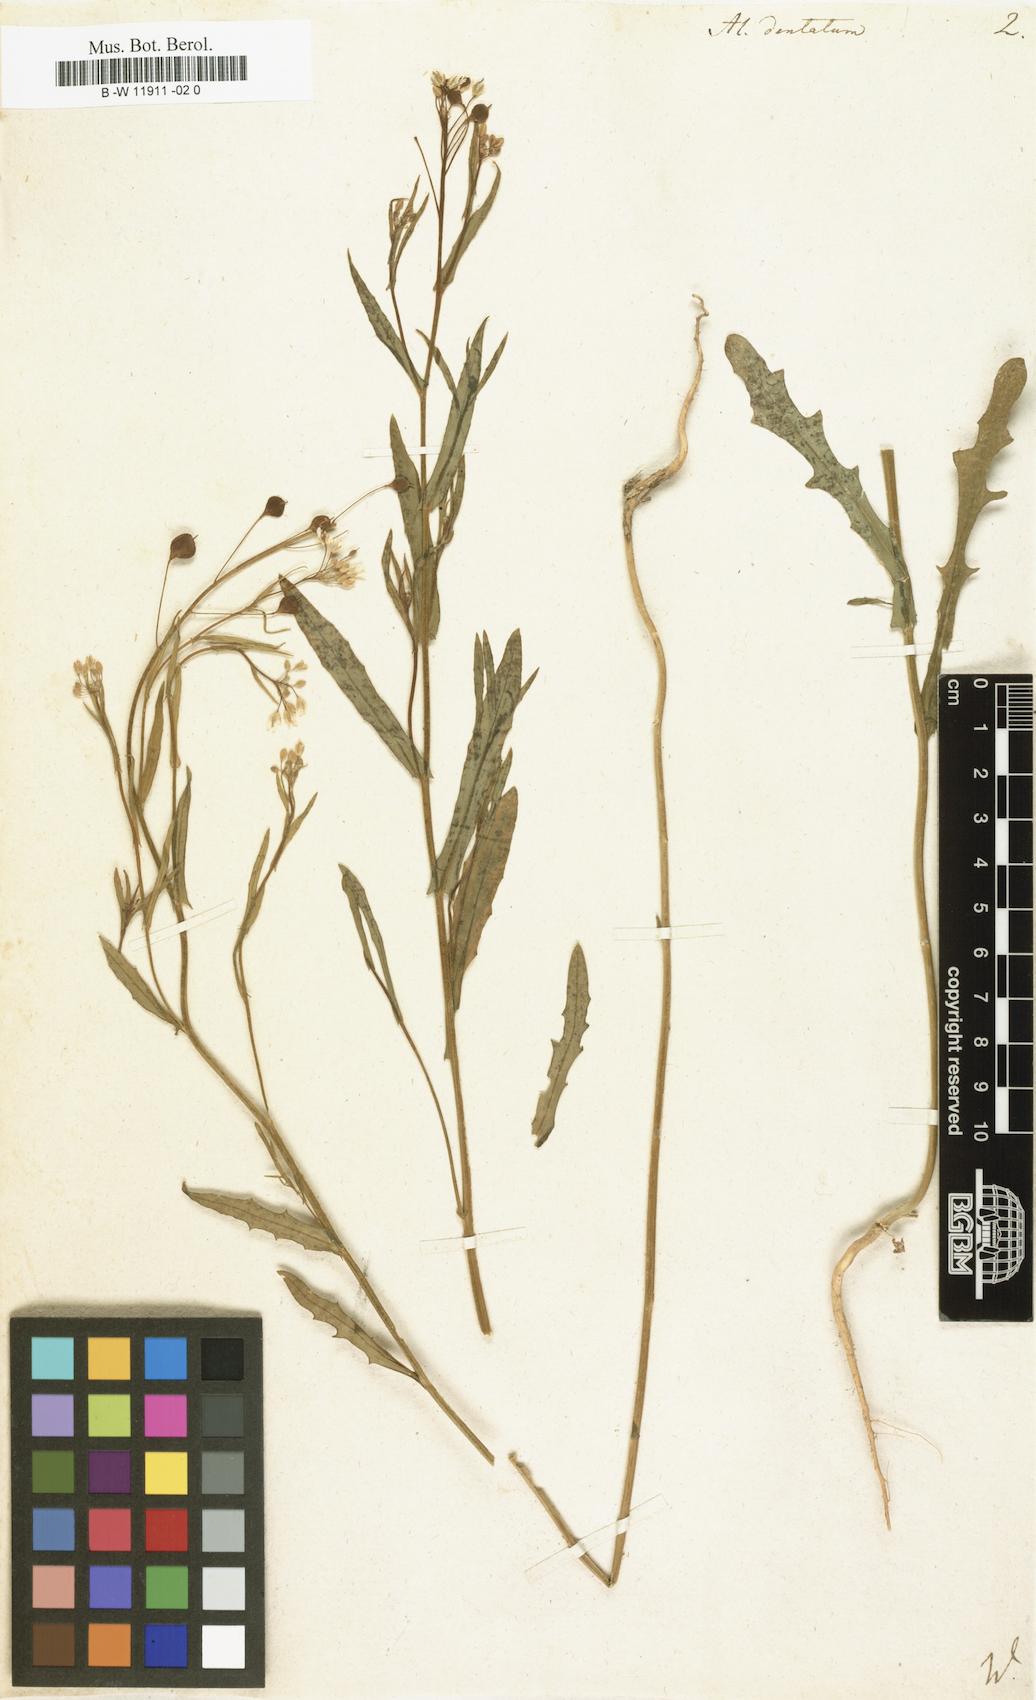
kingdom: Plantae
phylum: Tracheophyta
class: Magnoliopsida
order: Brassicales
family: Brassicaceae
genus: Camelina
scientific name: Camelina sativa
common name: Gold-of-pleasure
